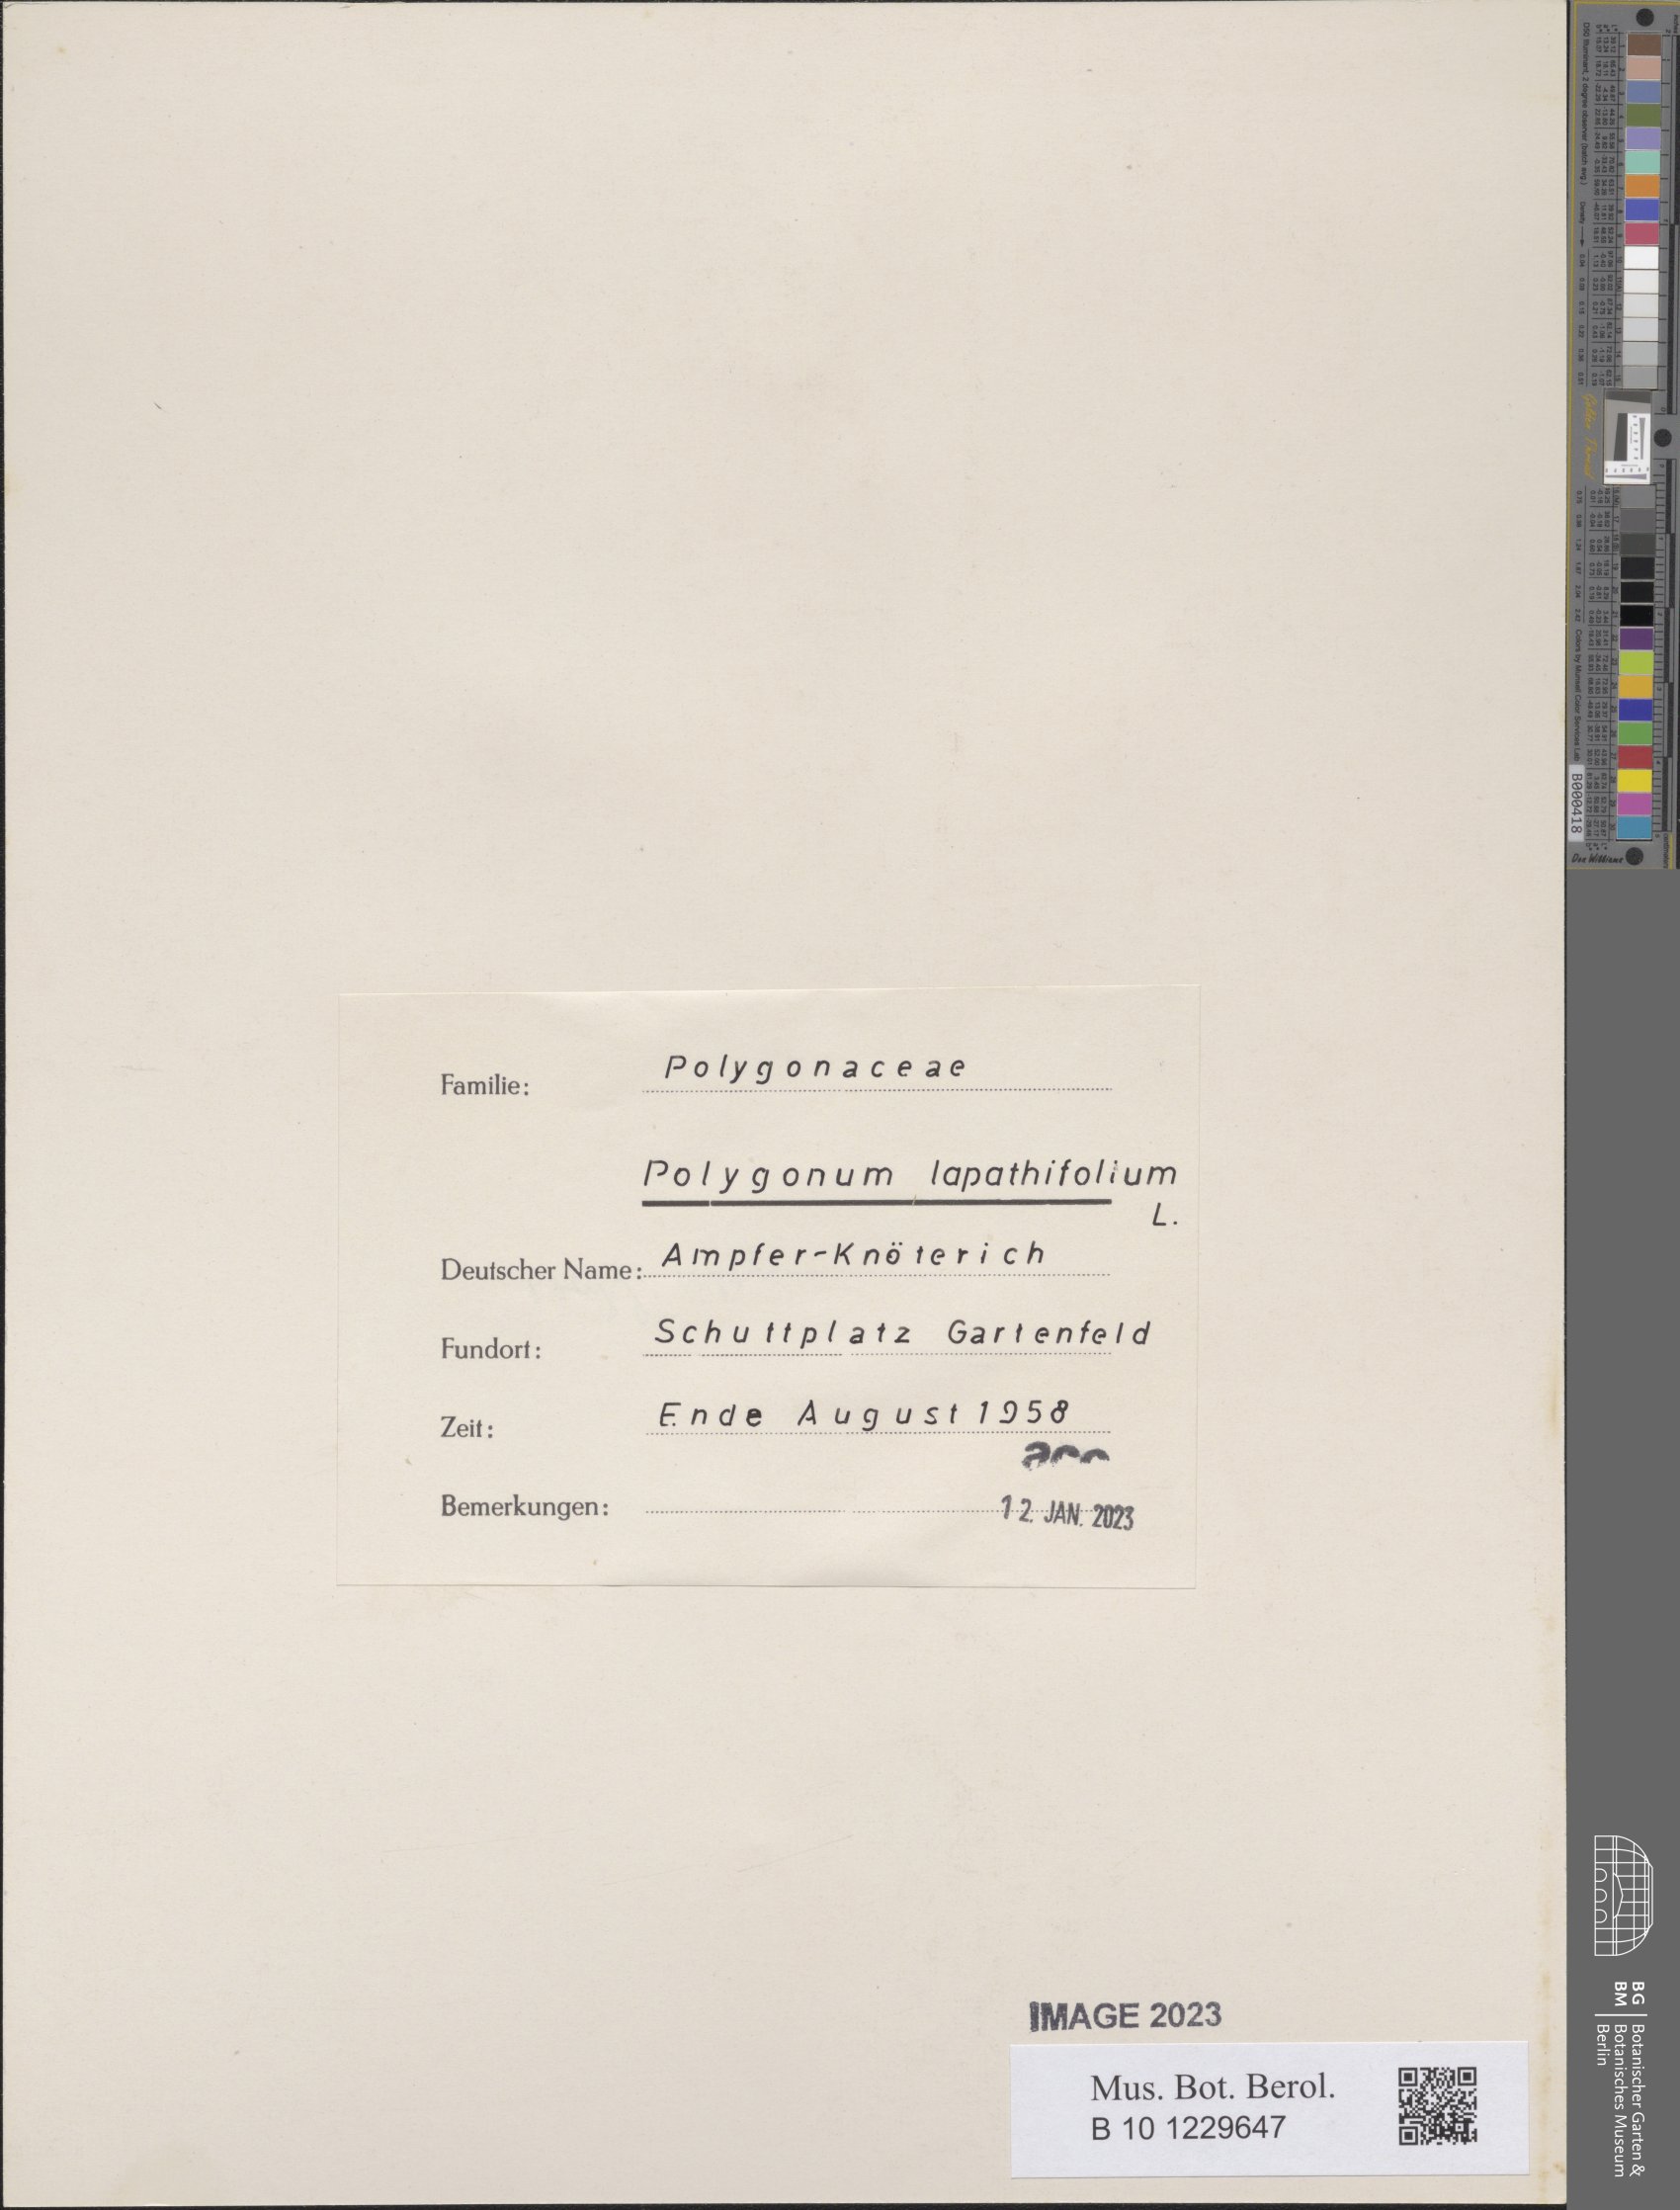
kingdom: Plantae
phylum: Tracheophyta
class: Magnoliopsida
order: Caryophyllales
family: Polygonaceae
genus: Persicaria
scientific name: Persicaria lapathifolia
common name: Curlytop knotweed
